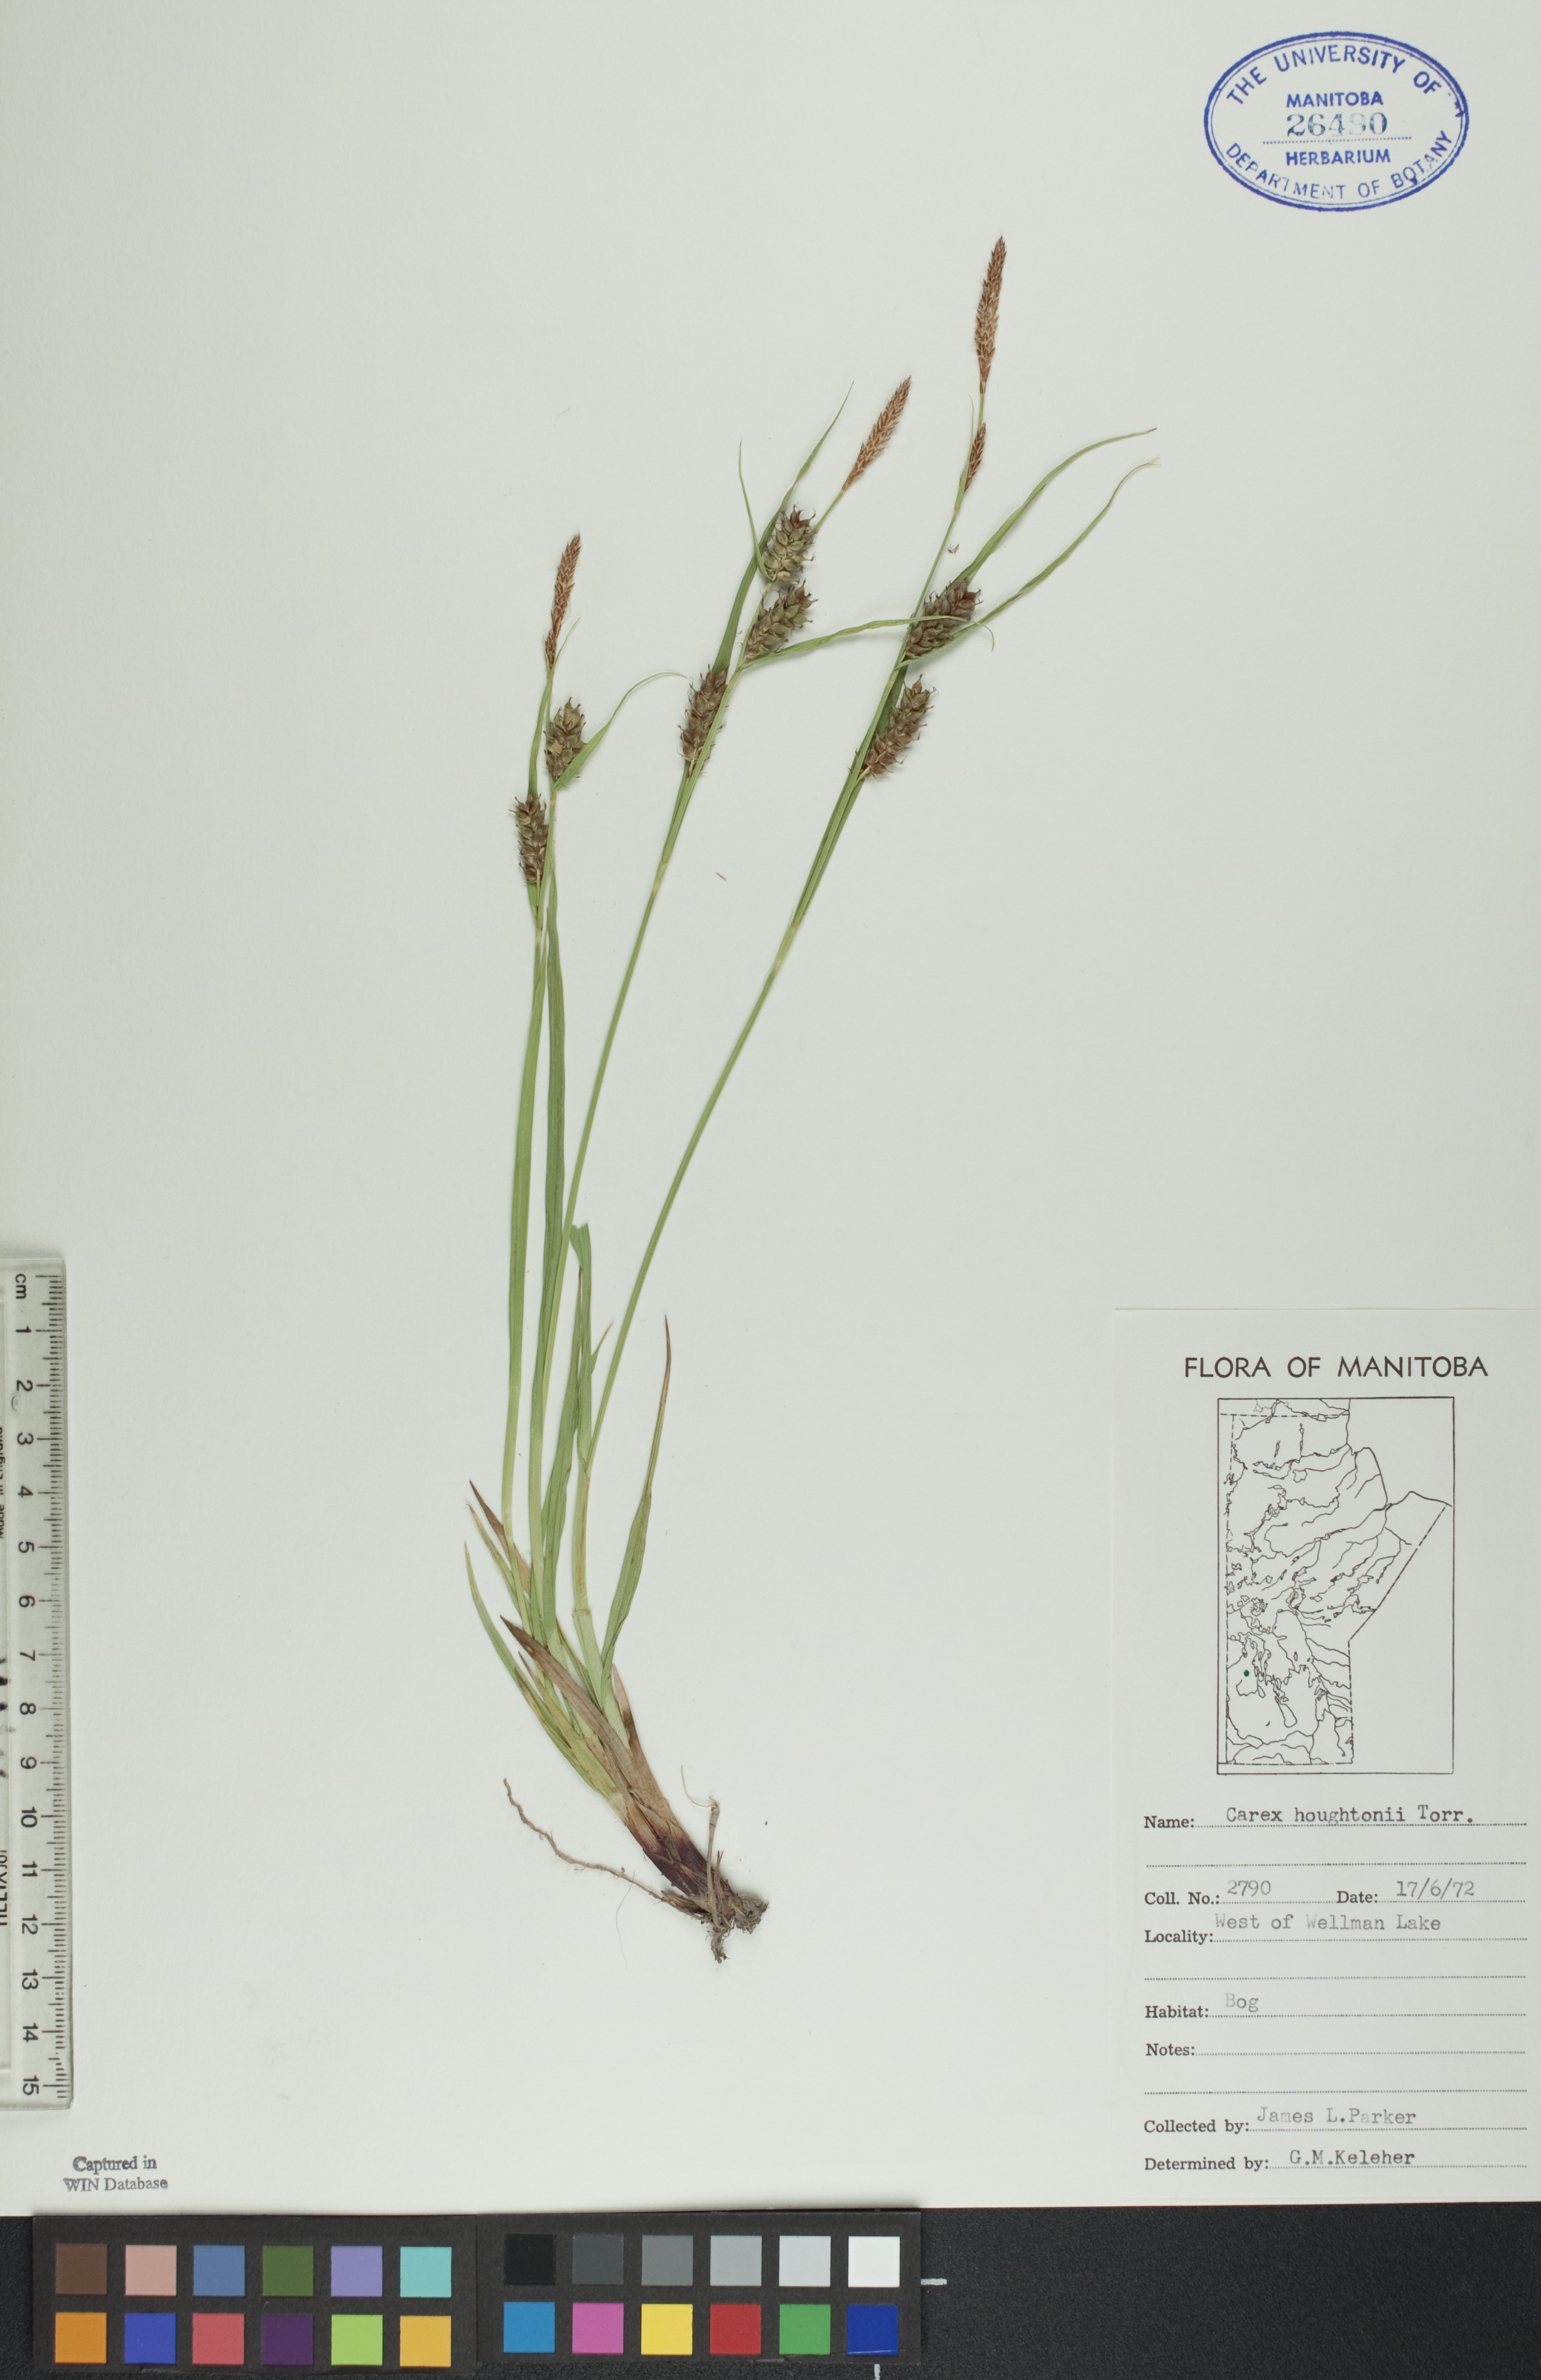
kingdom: Plantae
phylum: Tracheophyta
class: Liliopsida
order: Poales
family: Cyperaceae
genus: Carex
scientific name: Carex houghtoniana
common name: Houghton's sedge
